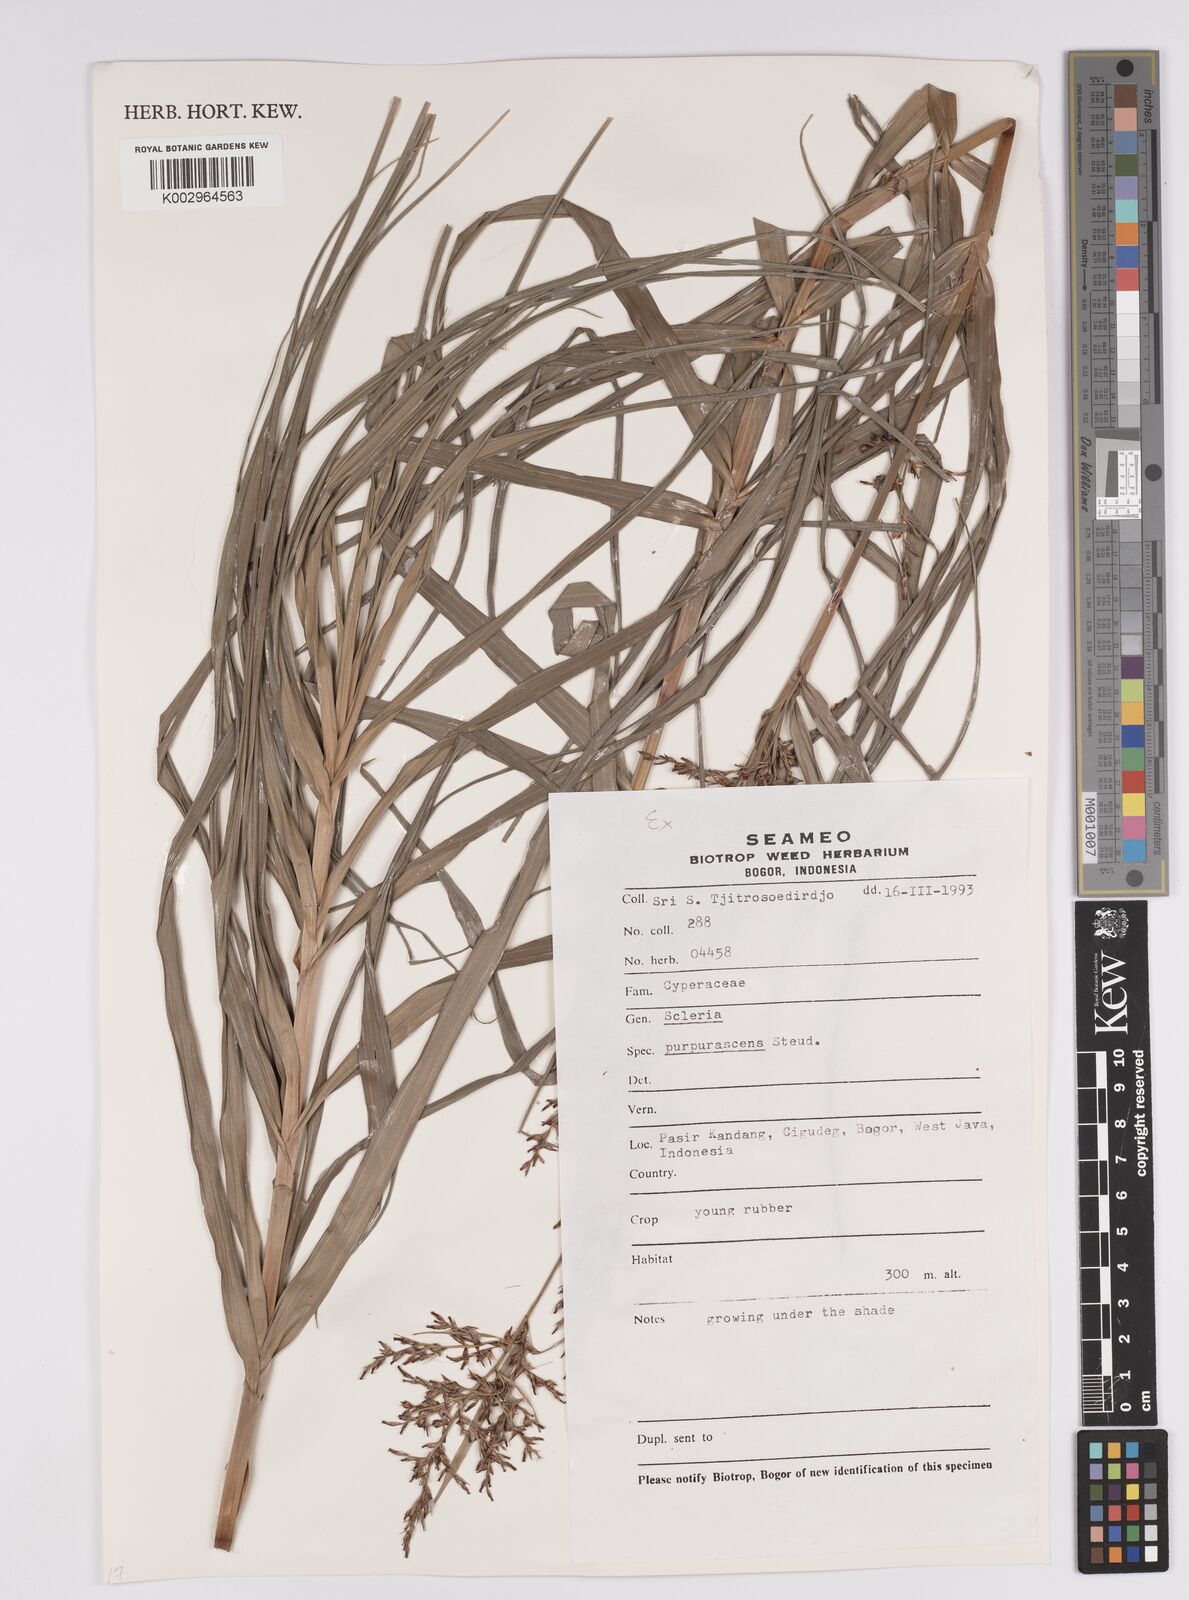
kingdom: Plantae
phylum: Tracheophyta
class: Liliopsida
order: Poales
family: Cyperaceae
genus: Scleria
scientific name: Scleria purpurascens
